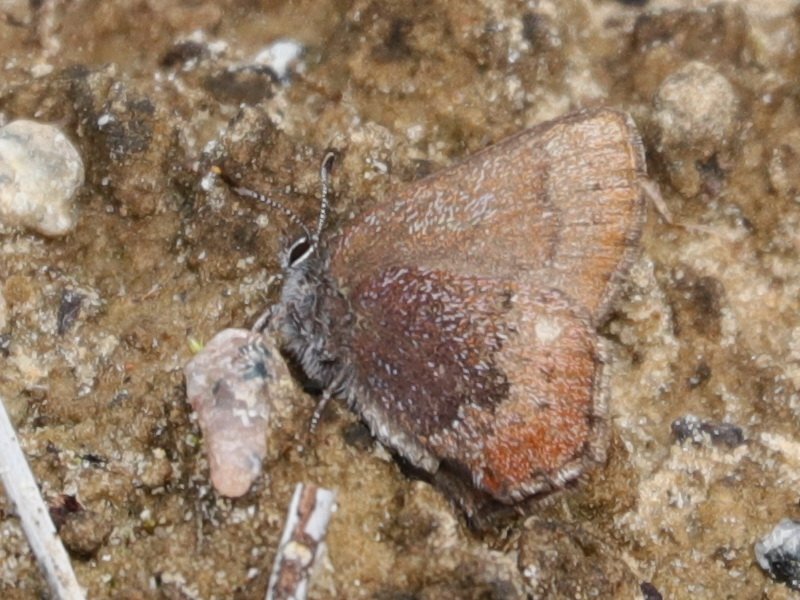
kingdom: Animalia
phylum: Arthropoda
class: Insecta
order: Lepidoptera
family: Lycaenidae
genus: Incisalia
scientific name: Incisalia irioides
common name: Brown Elfin
